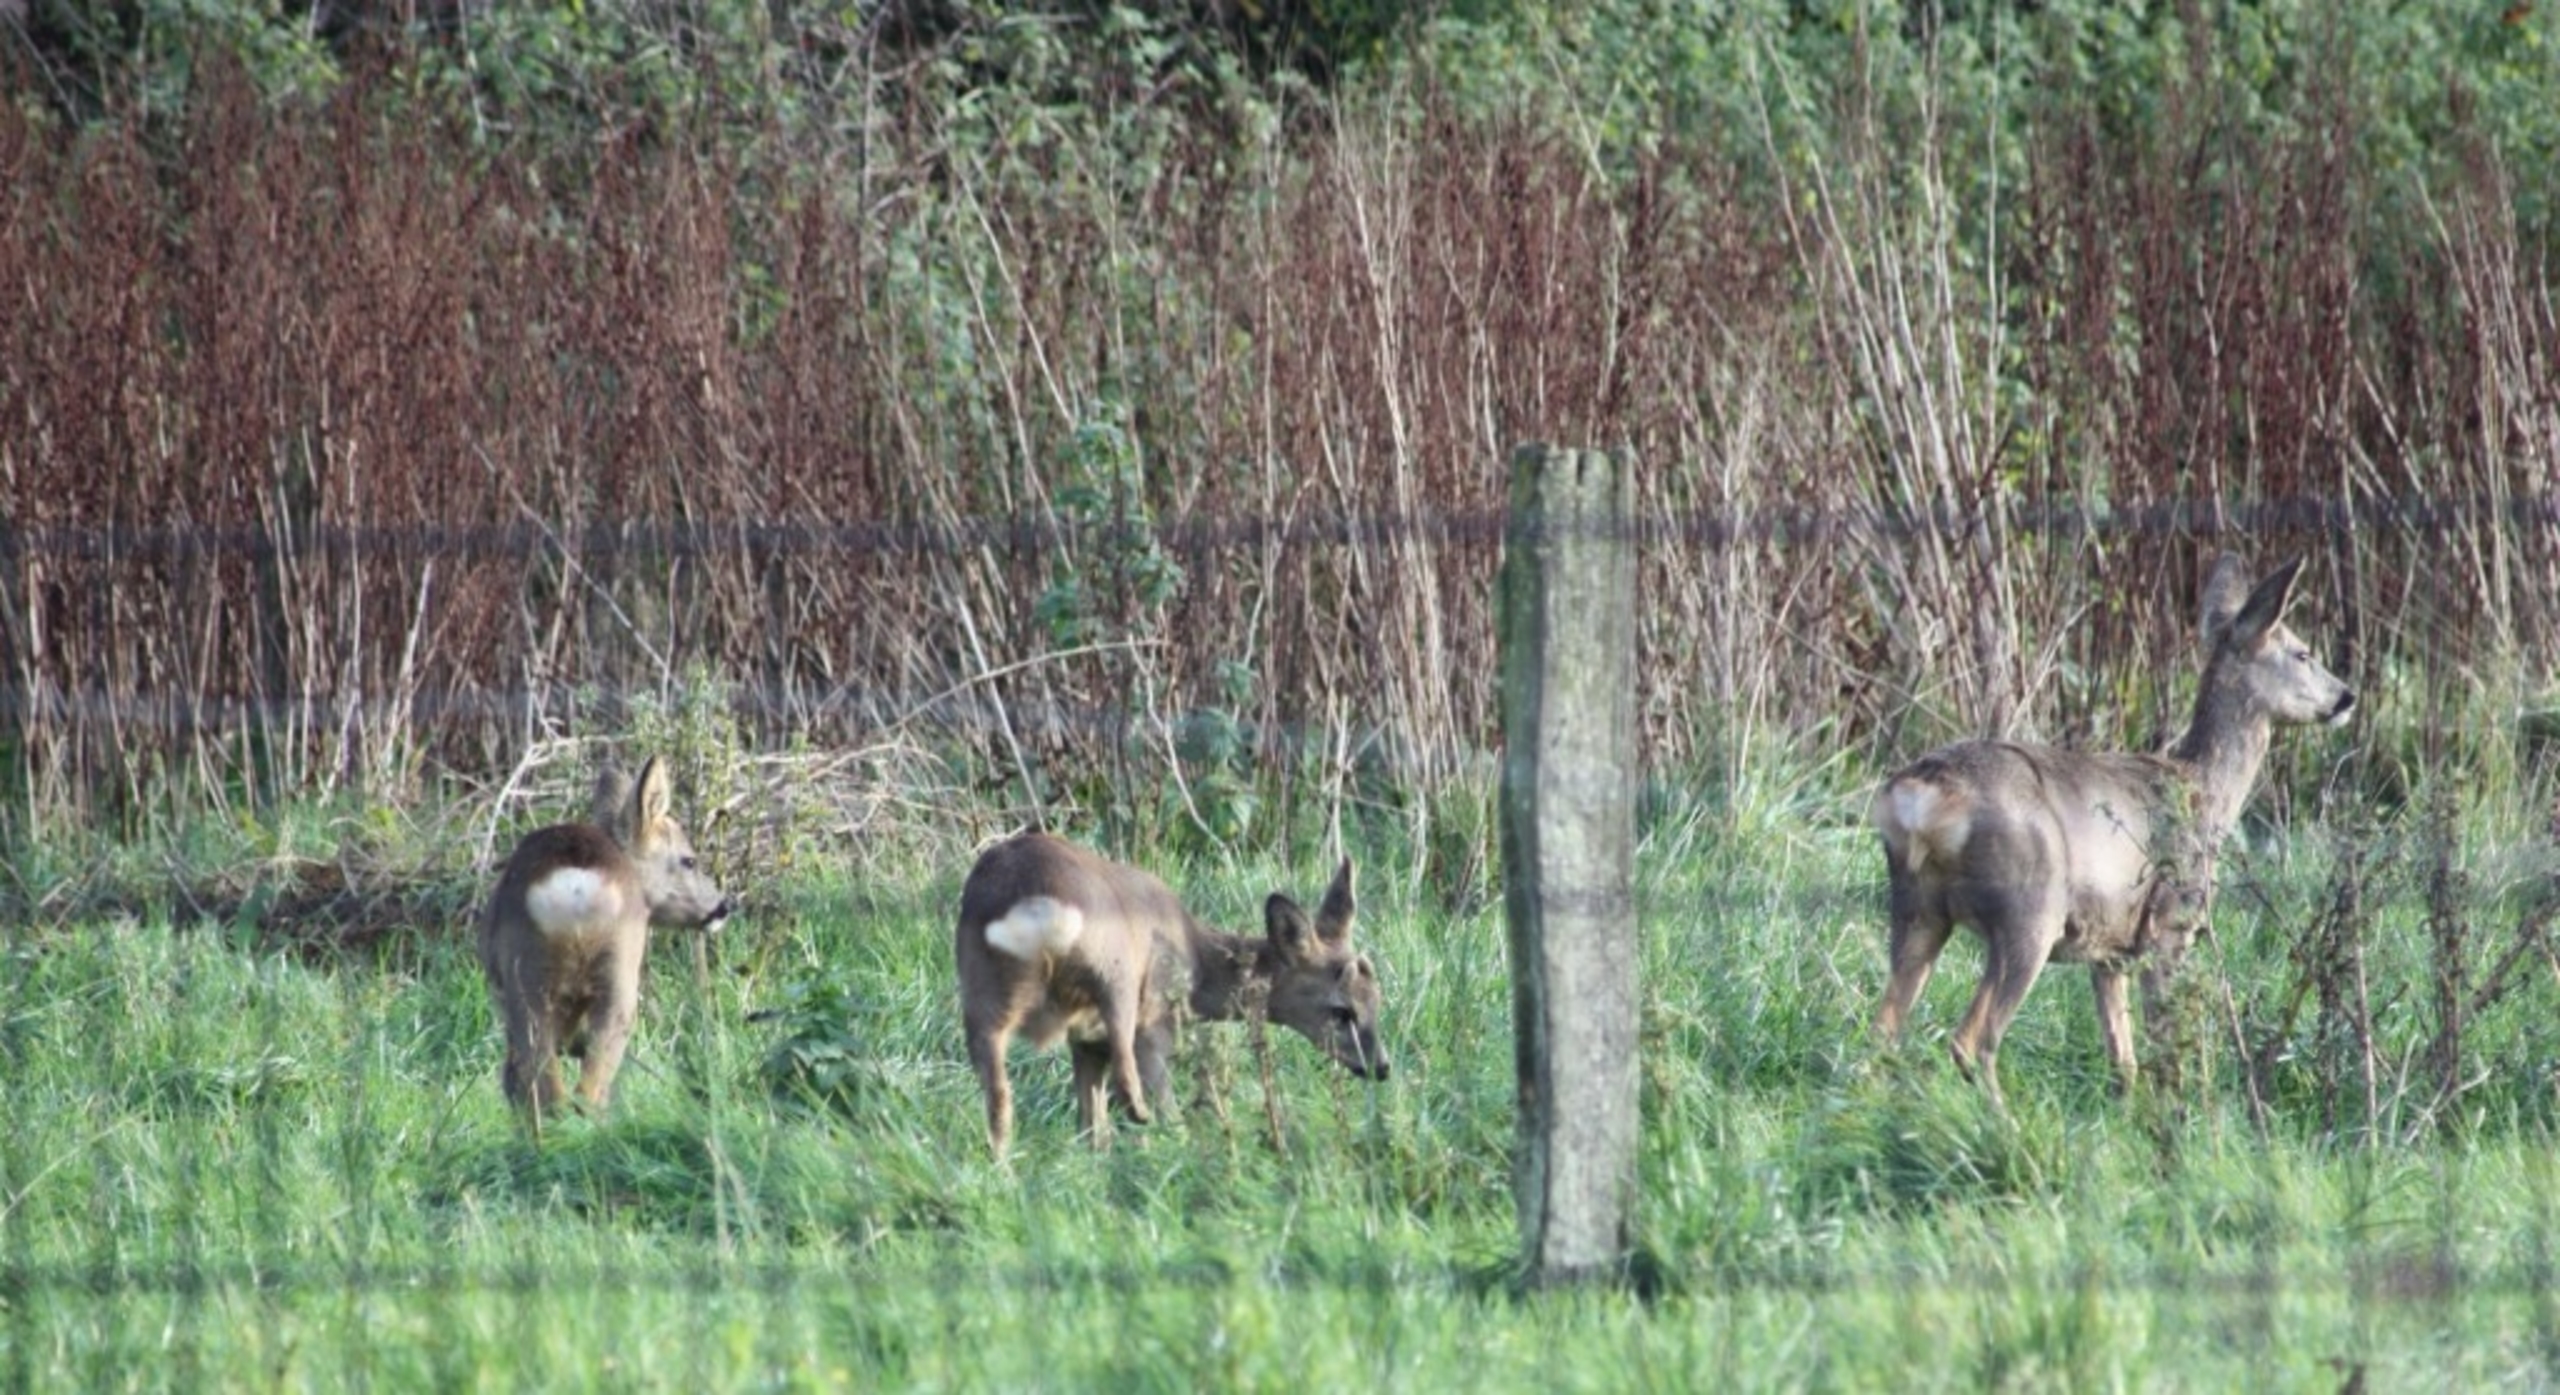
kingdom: Animalia
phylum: Chordata
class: Mammalia
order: Artiodactyla
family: Cervidae
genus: Capreolus
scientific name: Capreolus capreolus
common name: Rådyr
